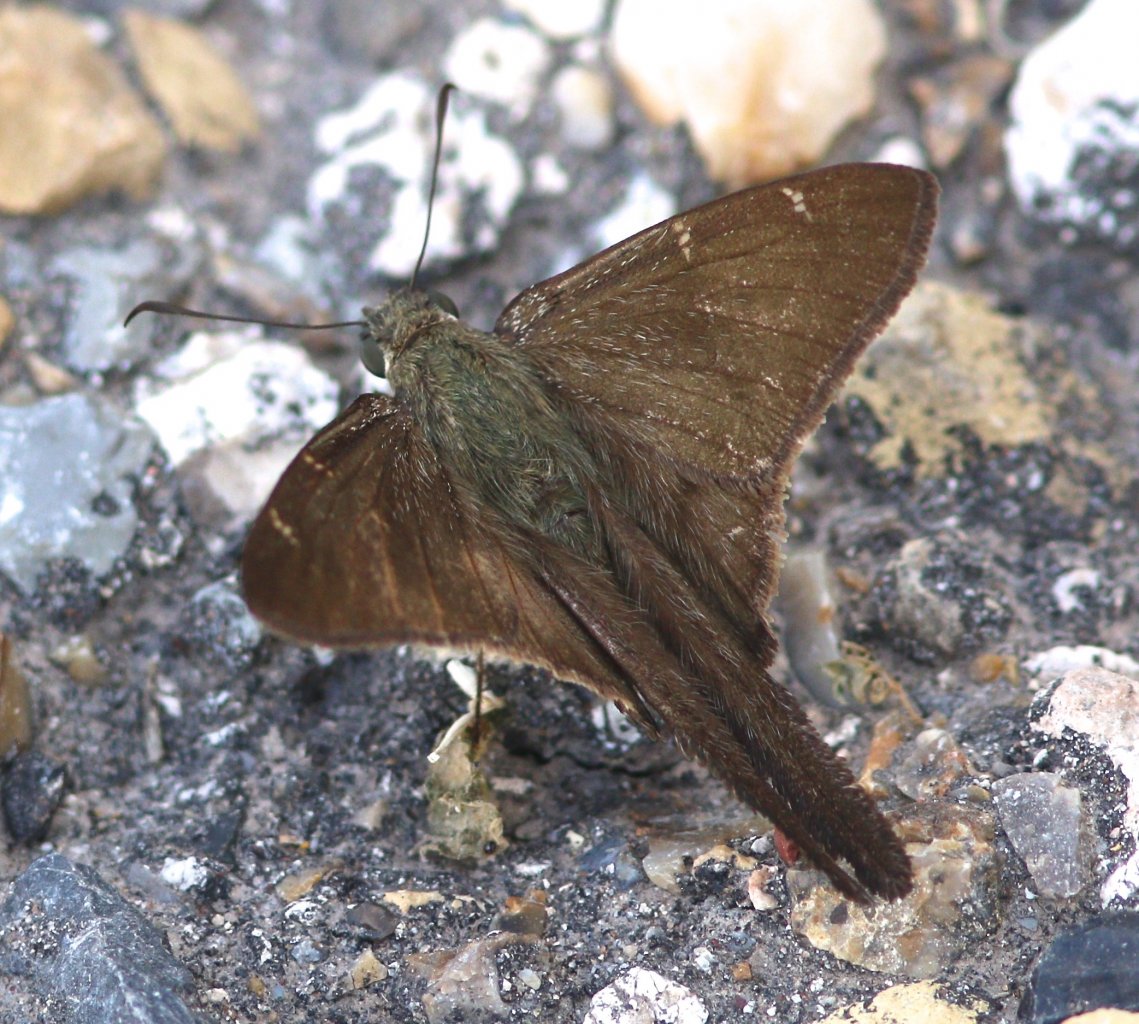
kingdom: Animalia
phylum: Arthropoda
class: Insecta
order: Lepidoptera
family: Hesperiidae
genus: Urbanus
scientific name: Urbanus procne
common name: Brown Longtail
